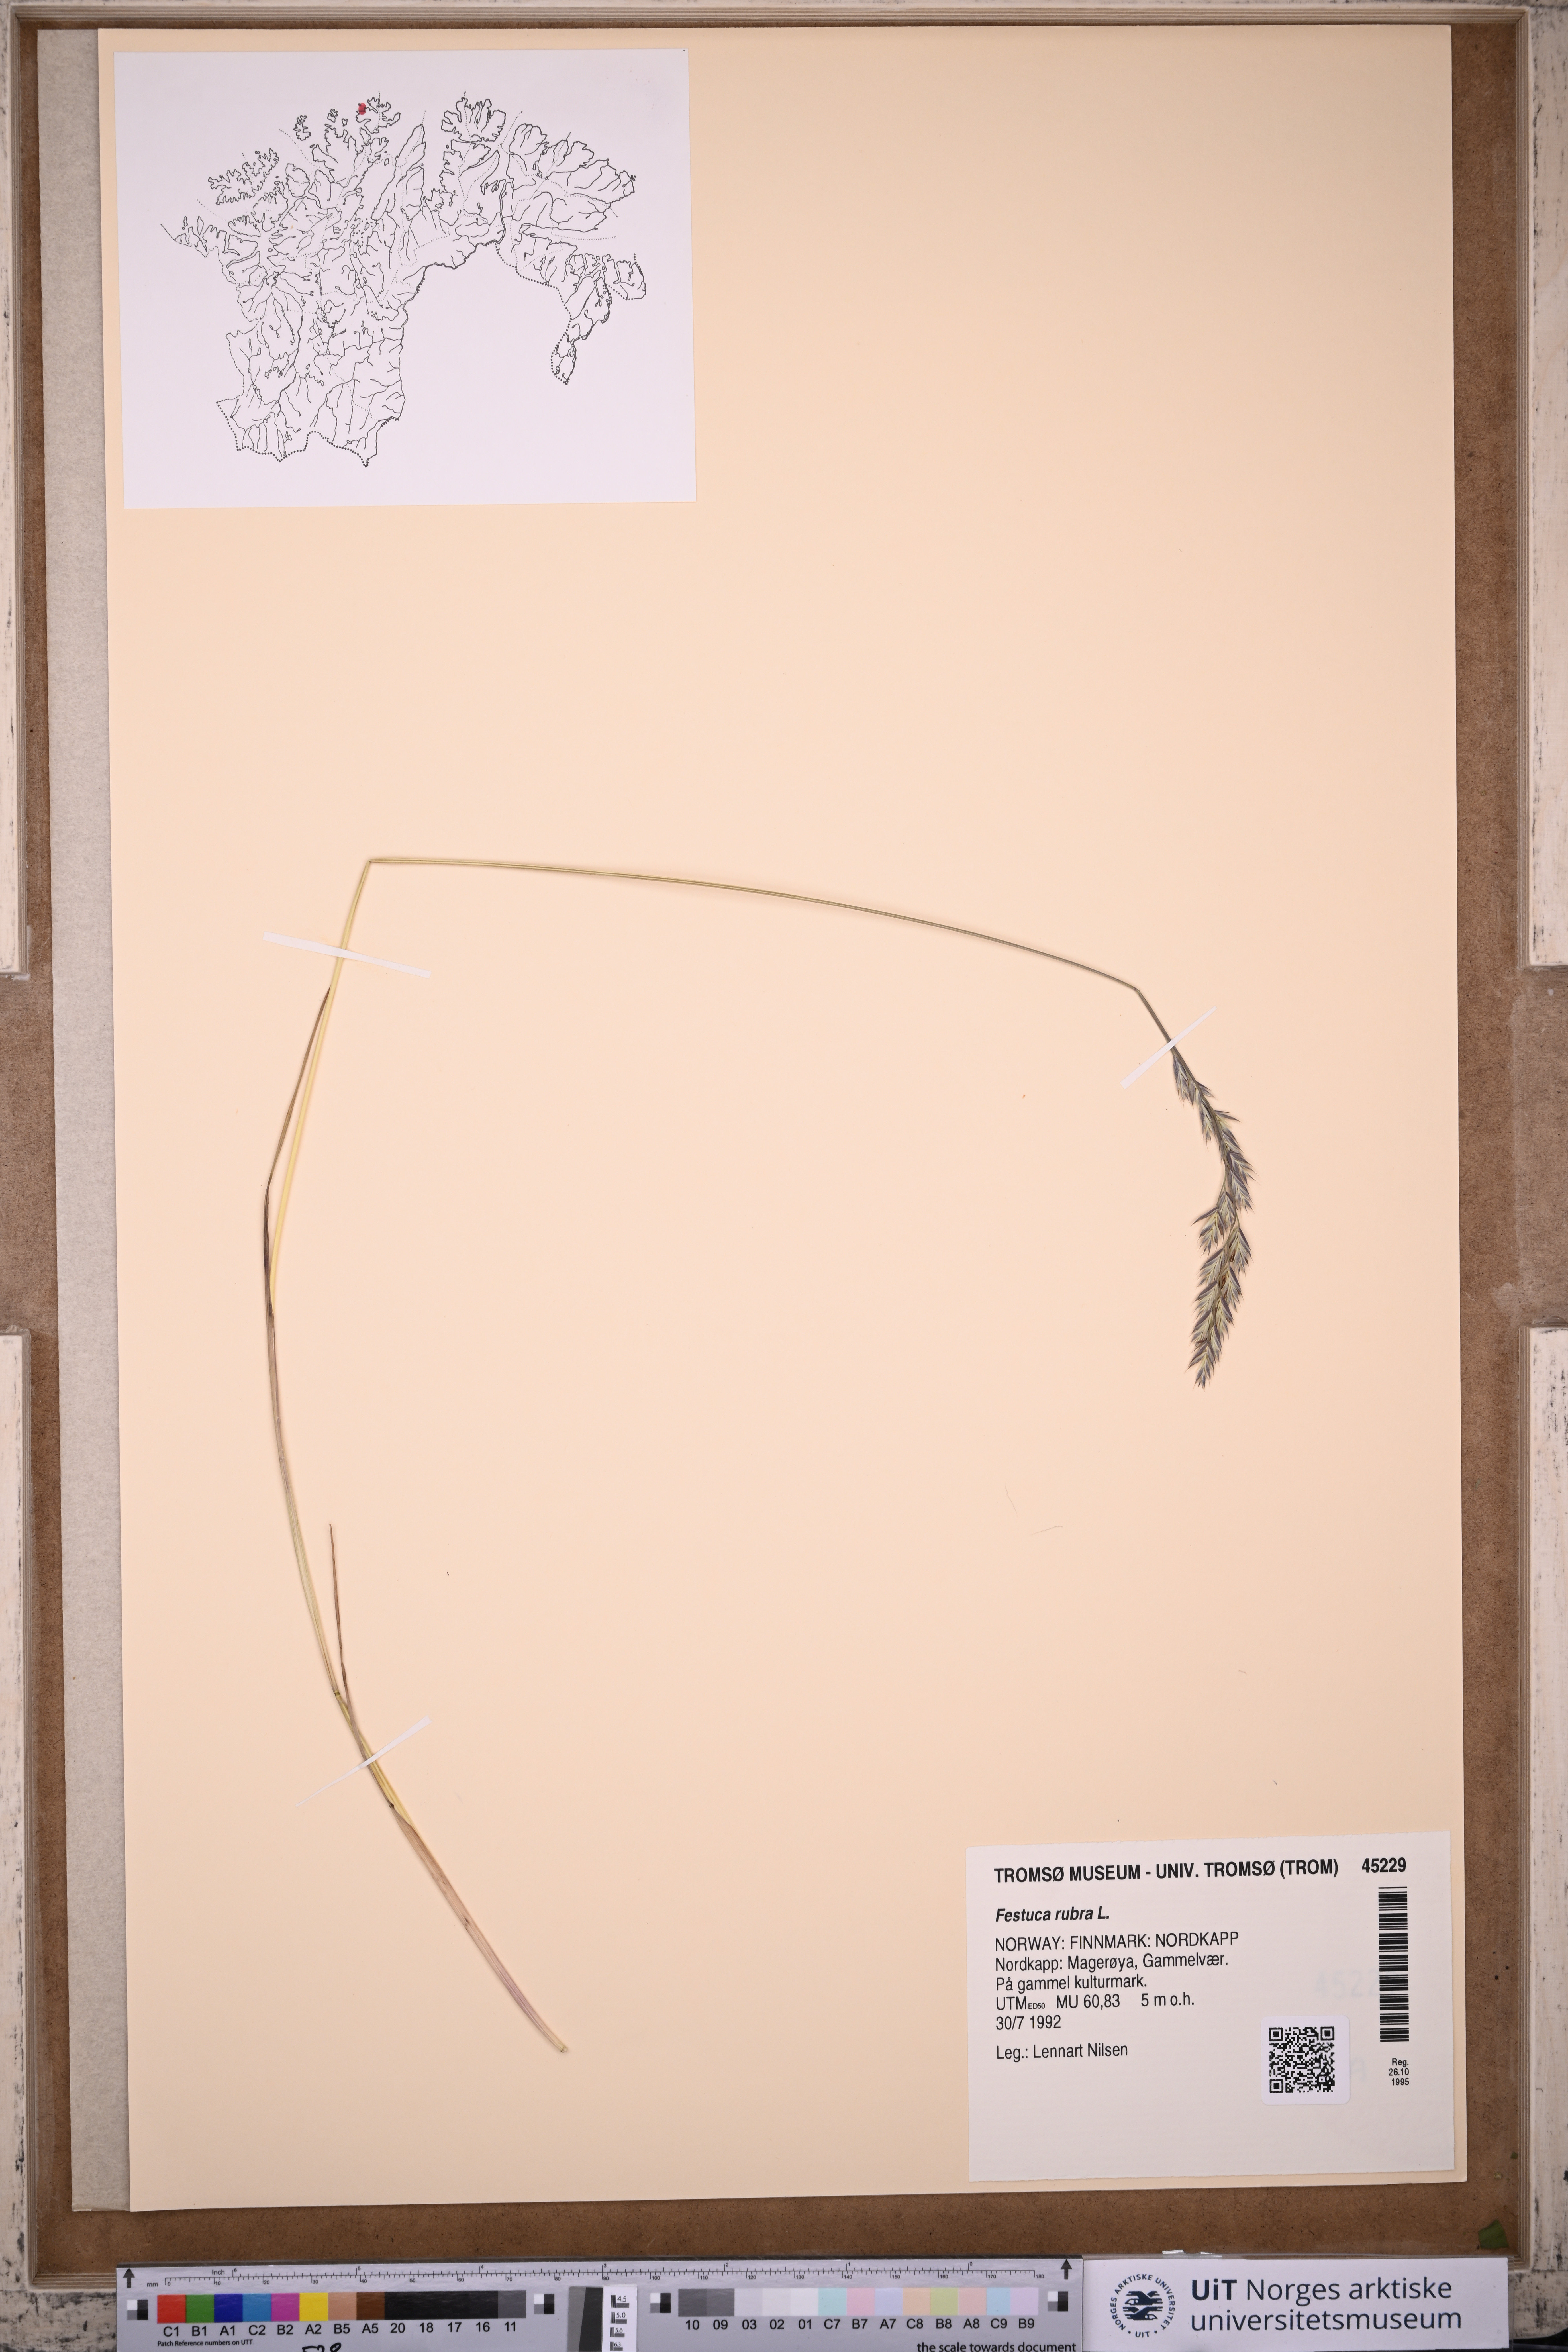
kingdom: Plantae
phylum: Tracheophyta
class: Liliopsida
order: Poales
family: Poaceae
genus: Festuca
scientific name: Festuca rubra
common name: Red fescue
